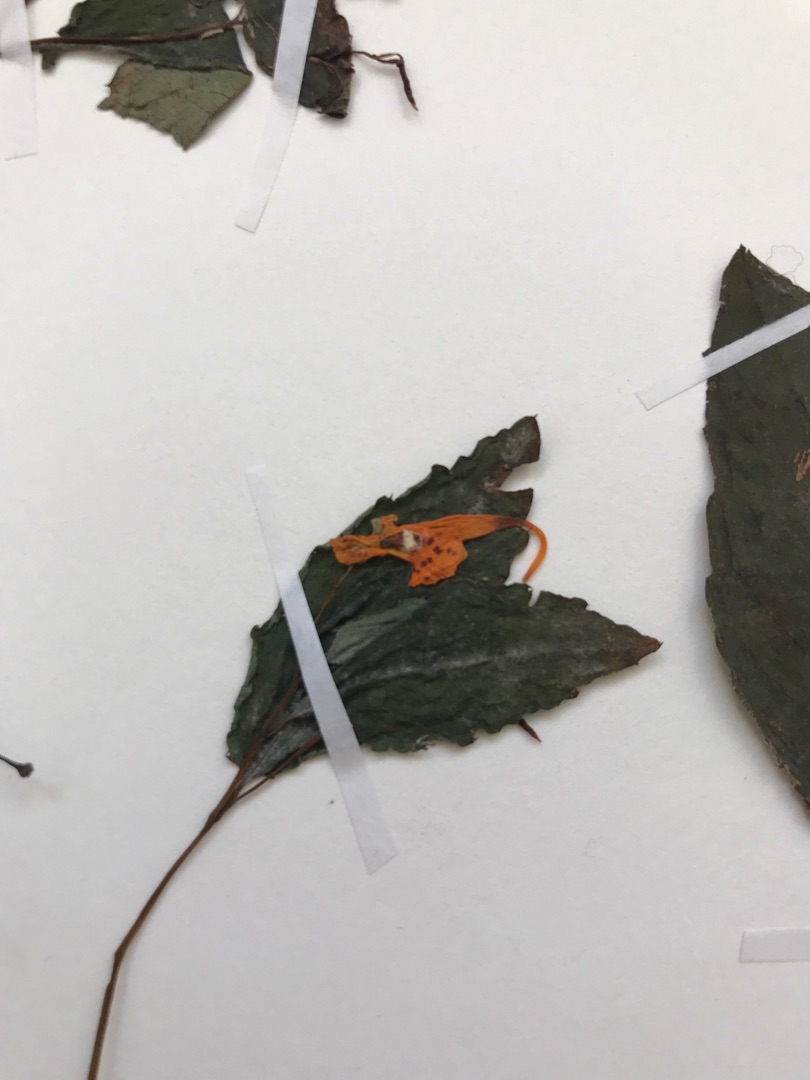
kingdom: Plantae
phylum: Tracheophyta
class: Magnoliopsida
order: Ericales
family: Balsaminaceae
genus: Impatiens
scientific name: Impatiens capensis
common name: Orange-balsamin
